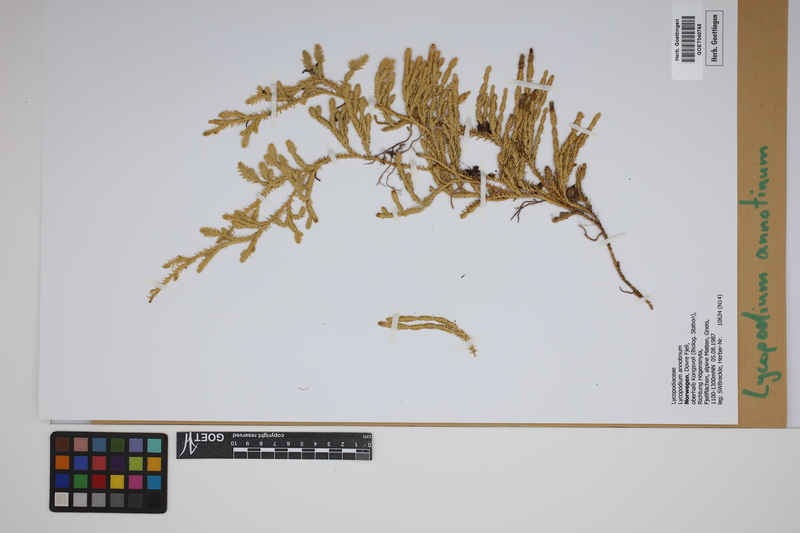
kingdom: Plantae
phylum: Tracheophyta
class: Lycopodiopsida
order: Lycopodiales
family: Lycopodiaceae
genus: Spinulum
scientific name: Spinulum annotinum
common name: Interrupted club-moss
